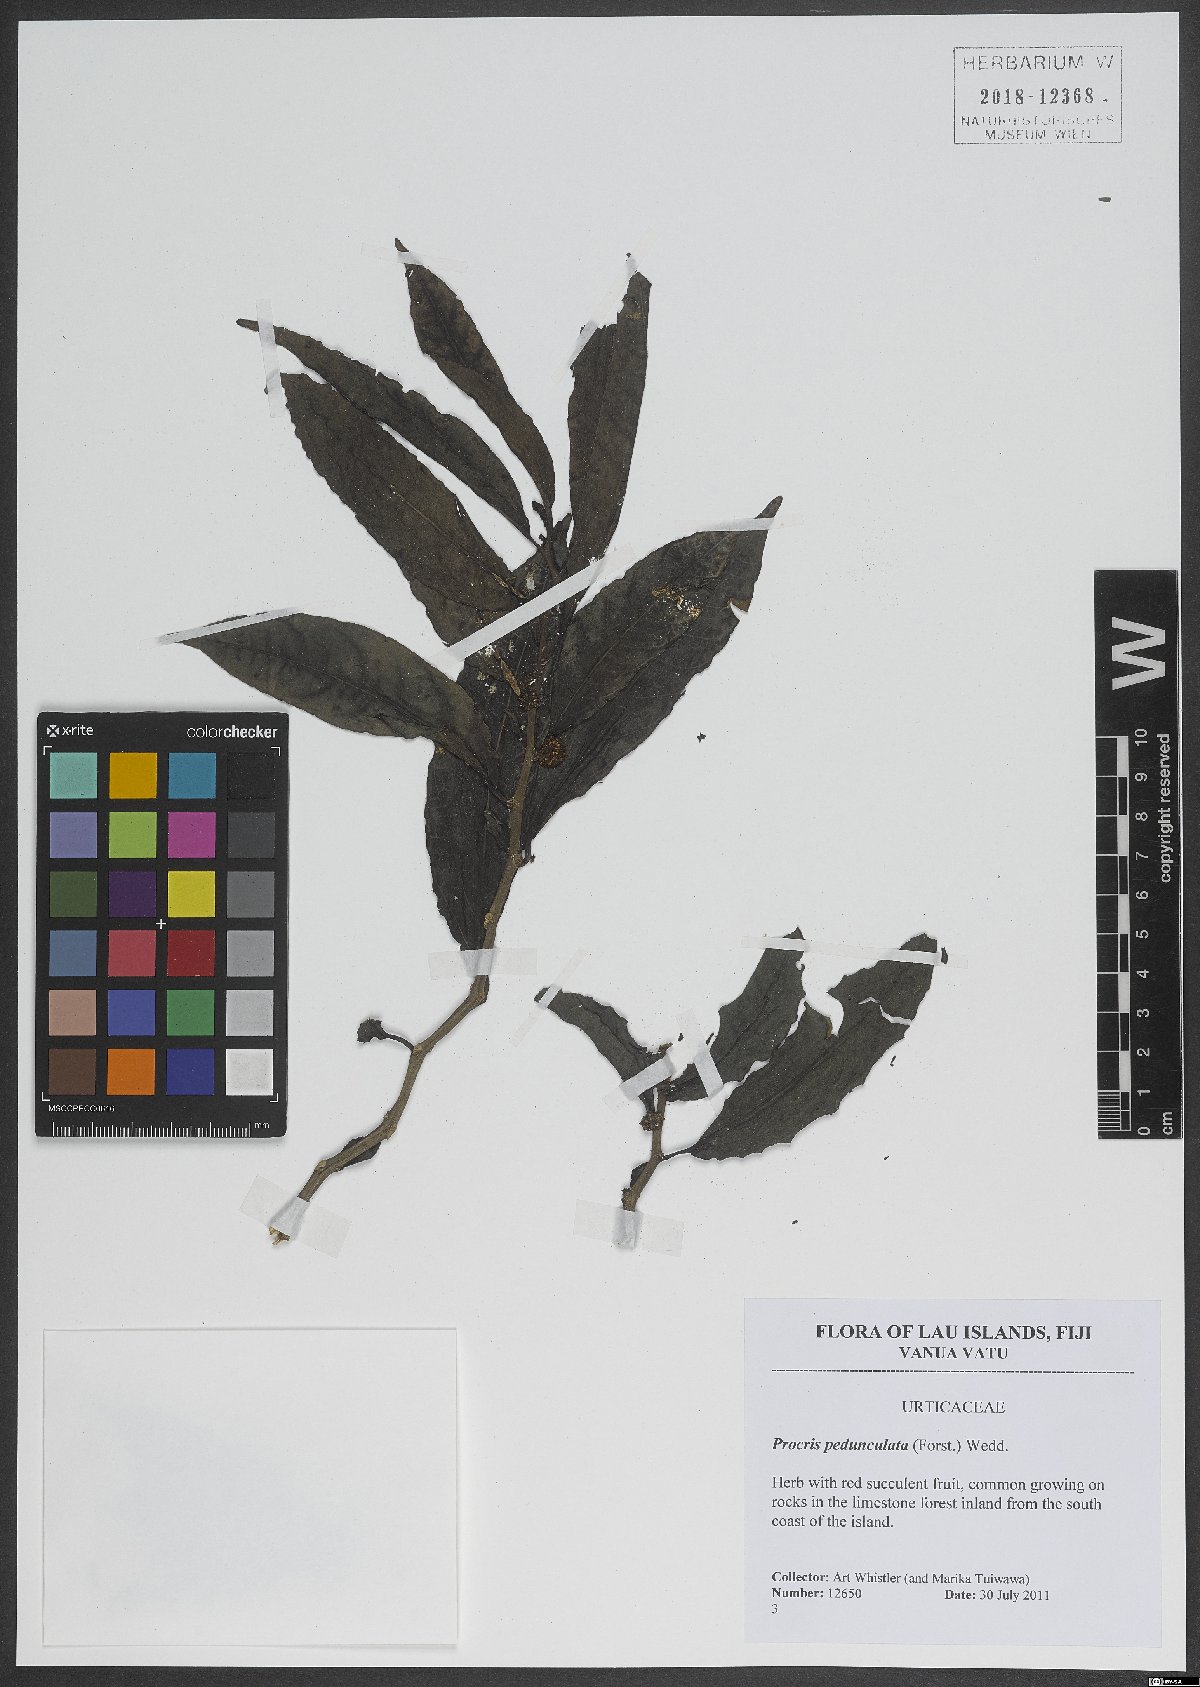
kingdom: Plantae
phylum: Tracheophyta
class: Magnoliopsida
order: Rosales
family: Urticaceae
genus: Procris
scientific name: Procris pedunculata
